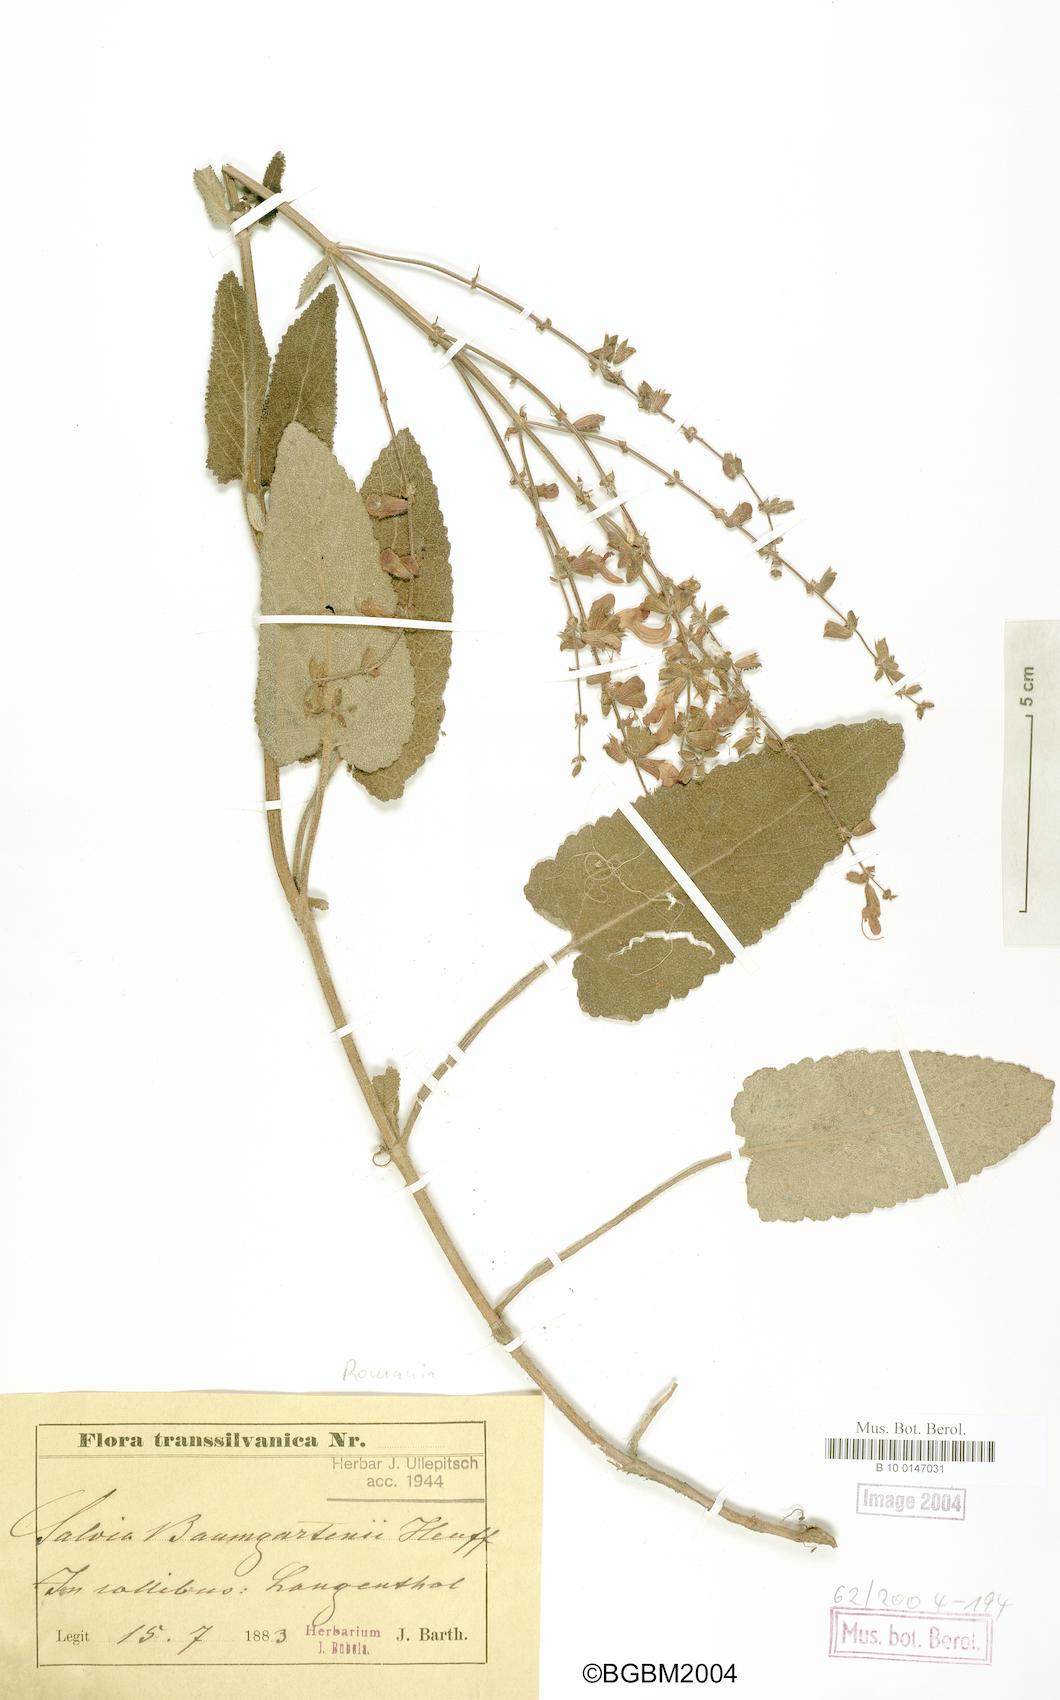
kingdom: Plantae
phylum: Tracheophyta
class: Magnoliopsida
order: Lamiales
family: Lamiaceae
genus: Salvia
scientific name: Salvia transsylvanica
